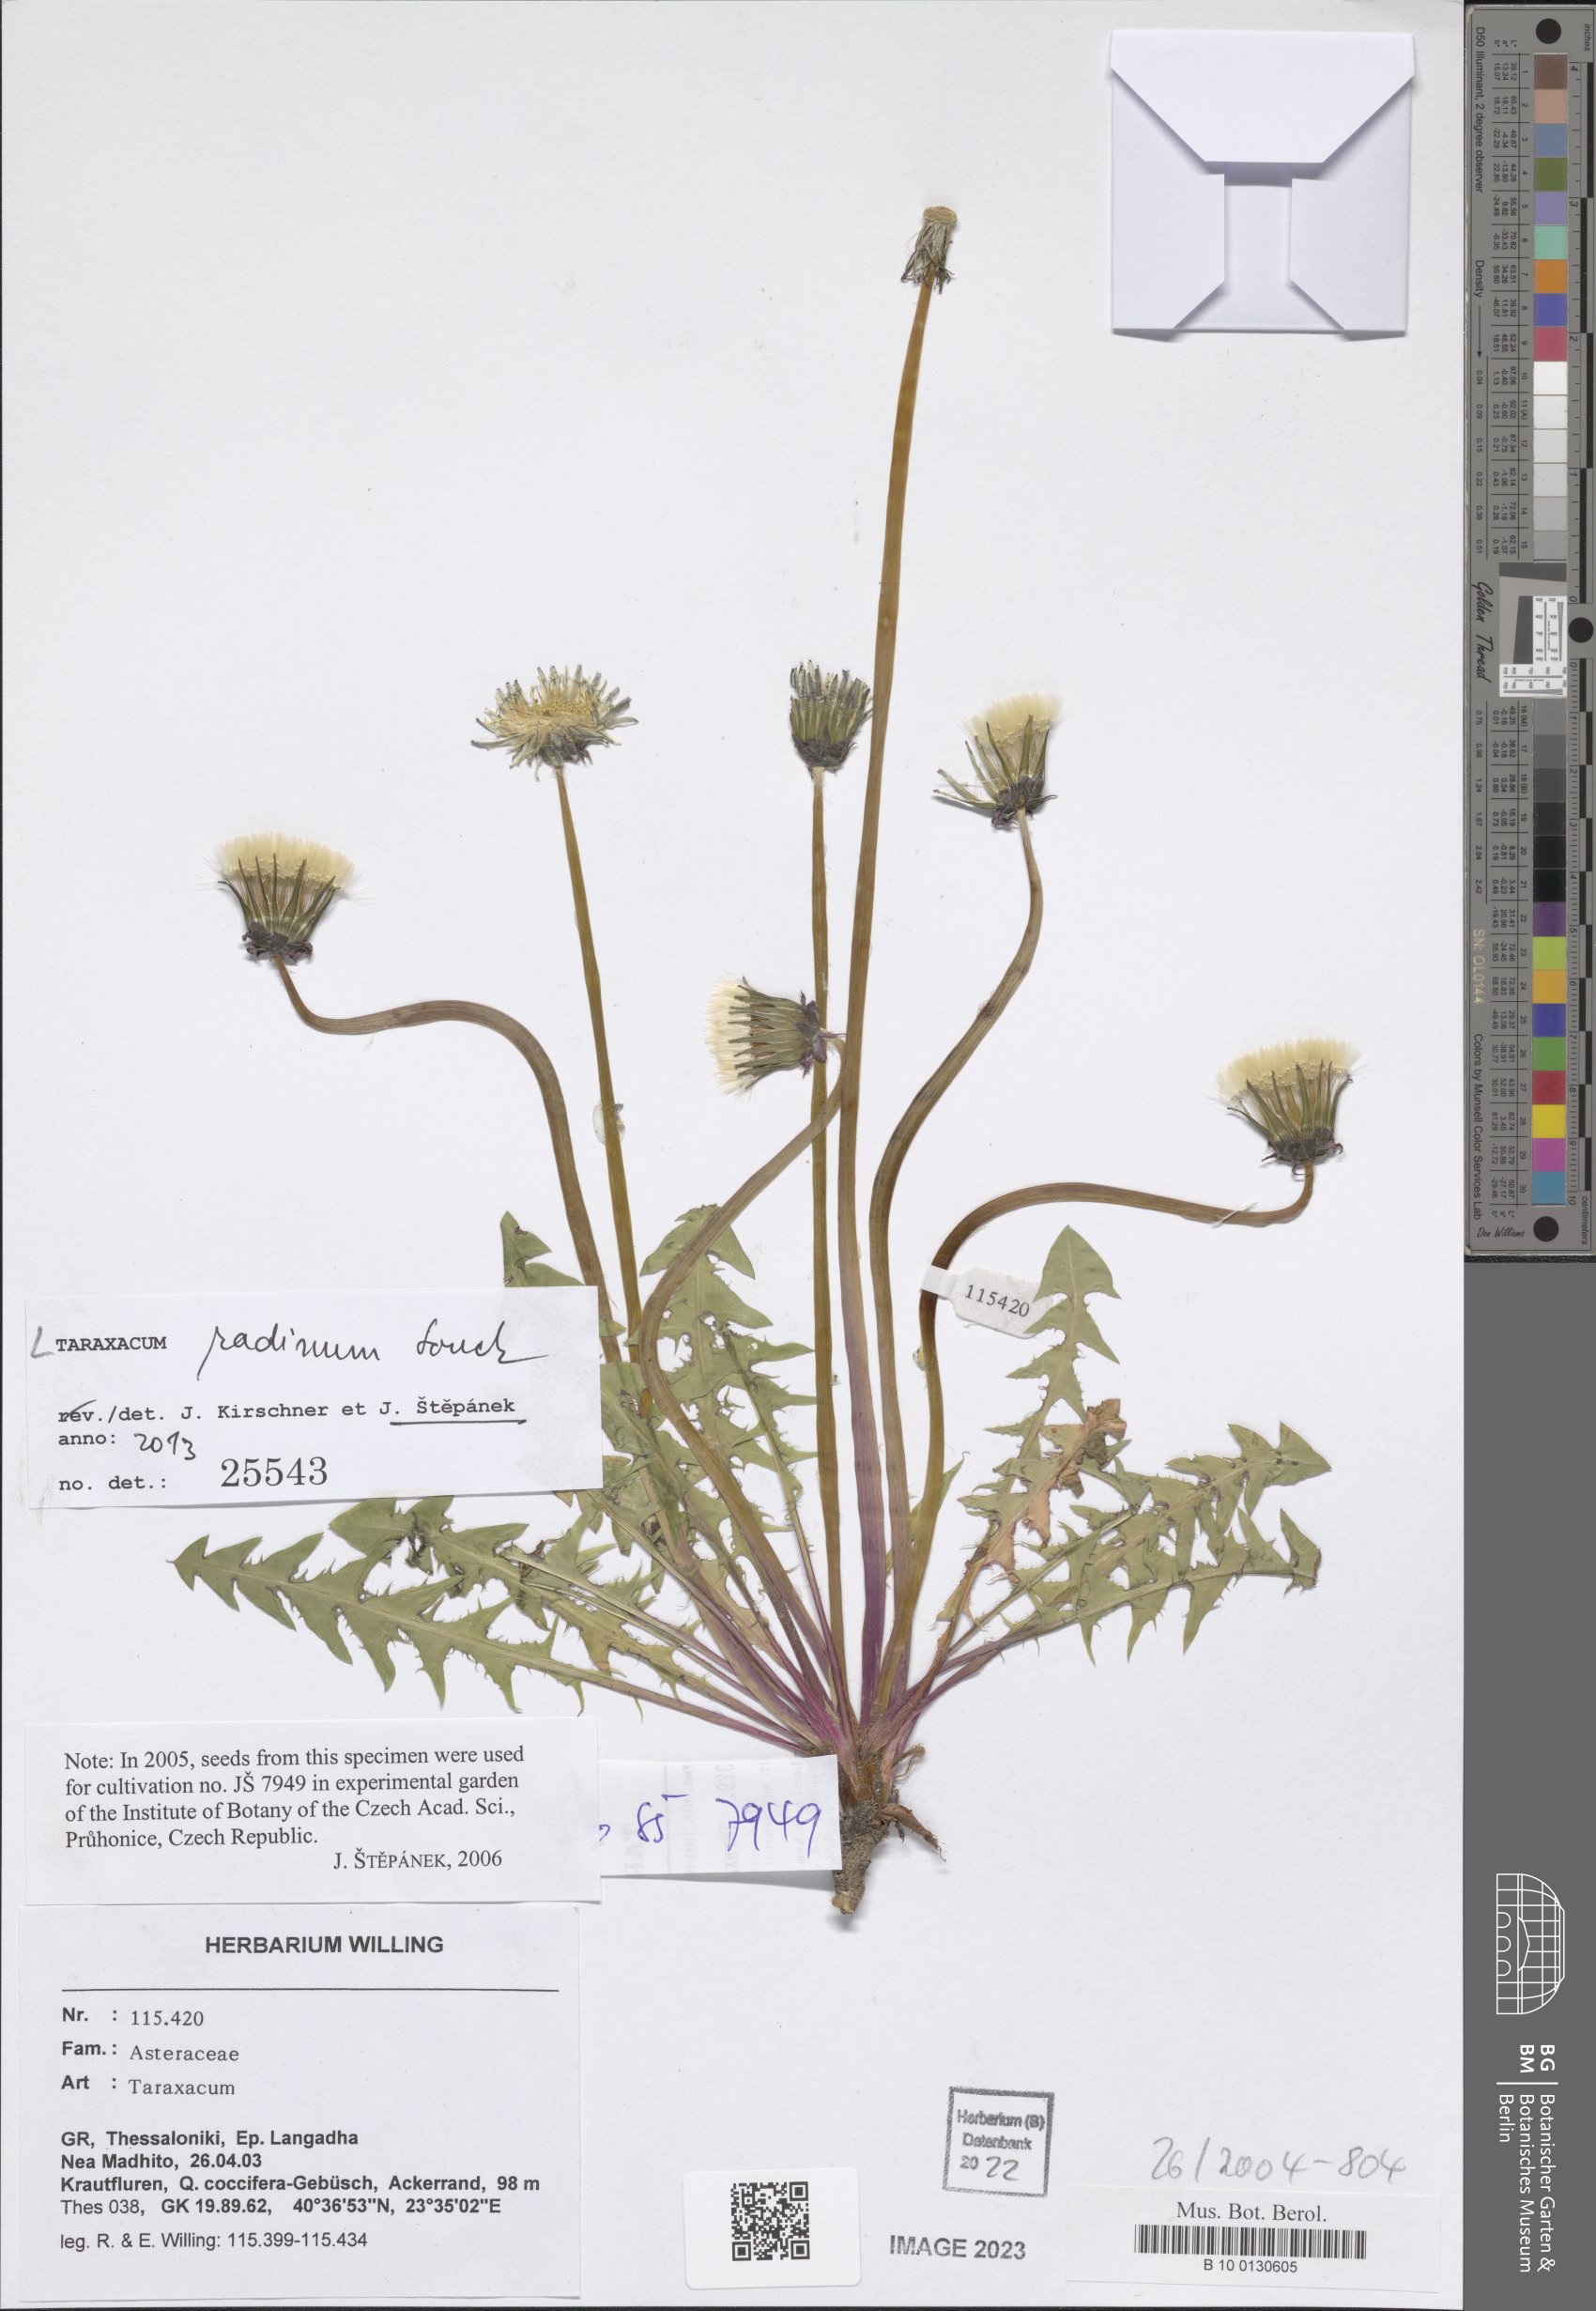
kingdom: Plantae
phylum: Tracheophyta
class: Magnoliopsida
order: Asterales
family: Asteraceae
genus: Taraxacum
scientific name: Taraxacum radens
